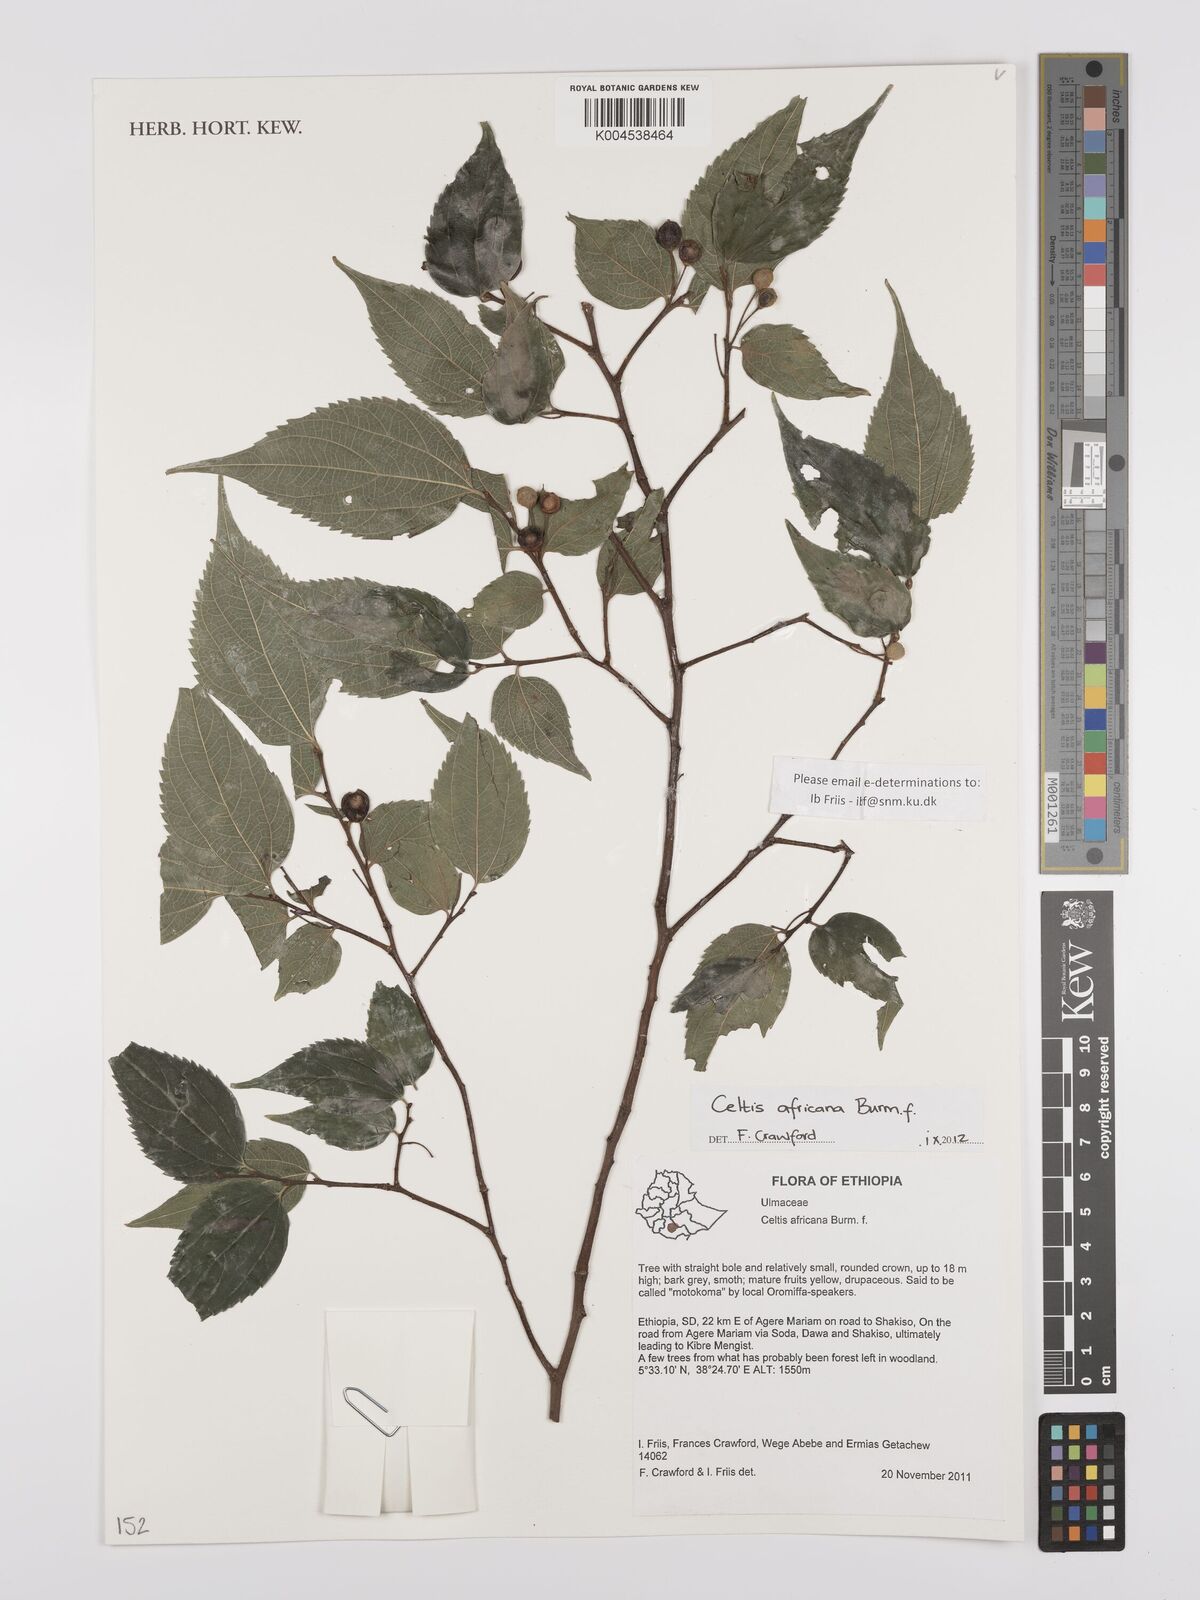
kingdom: Plantae
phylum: Tracheophyta
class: Magnoliopsida
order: Rosales
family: Cannabaceae
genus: Celtis
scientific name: Celtis africana
